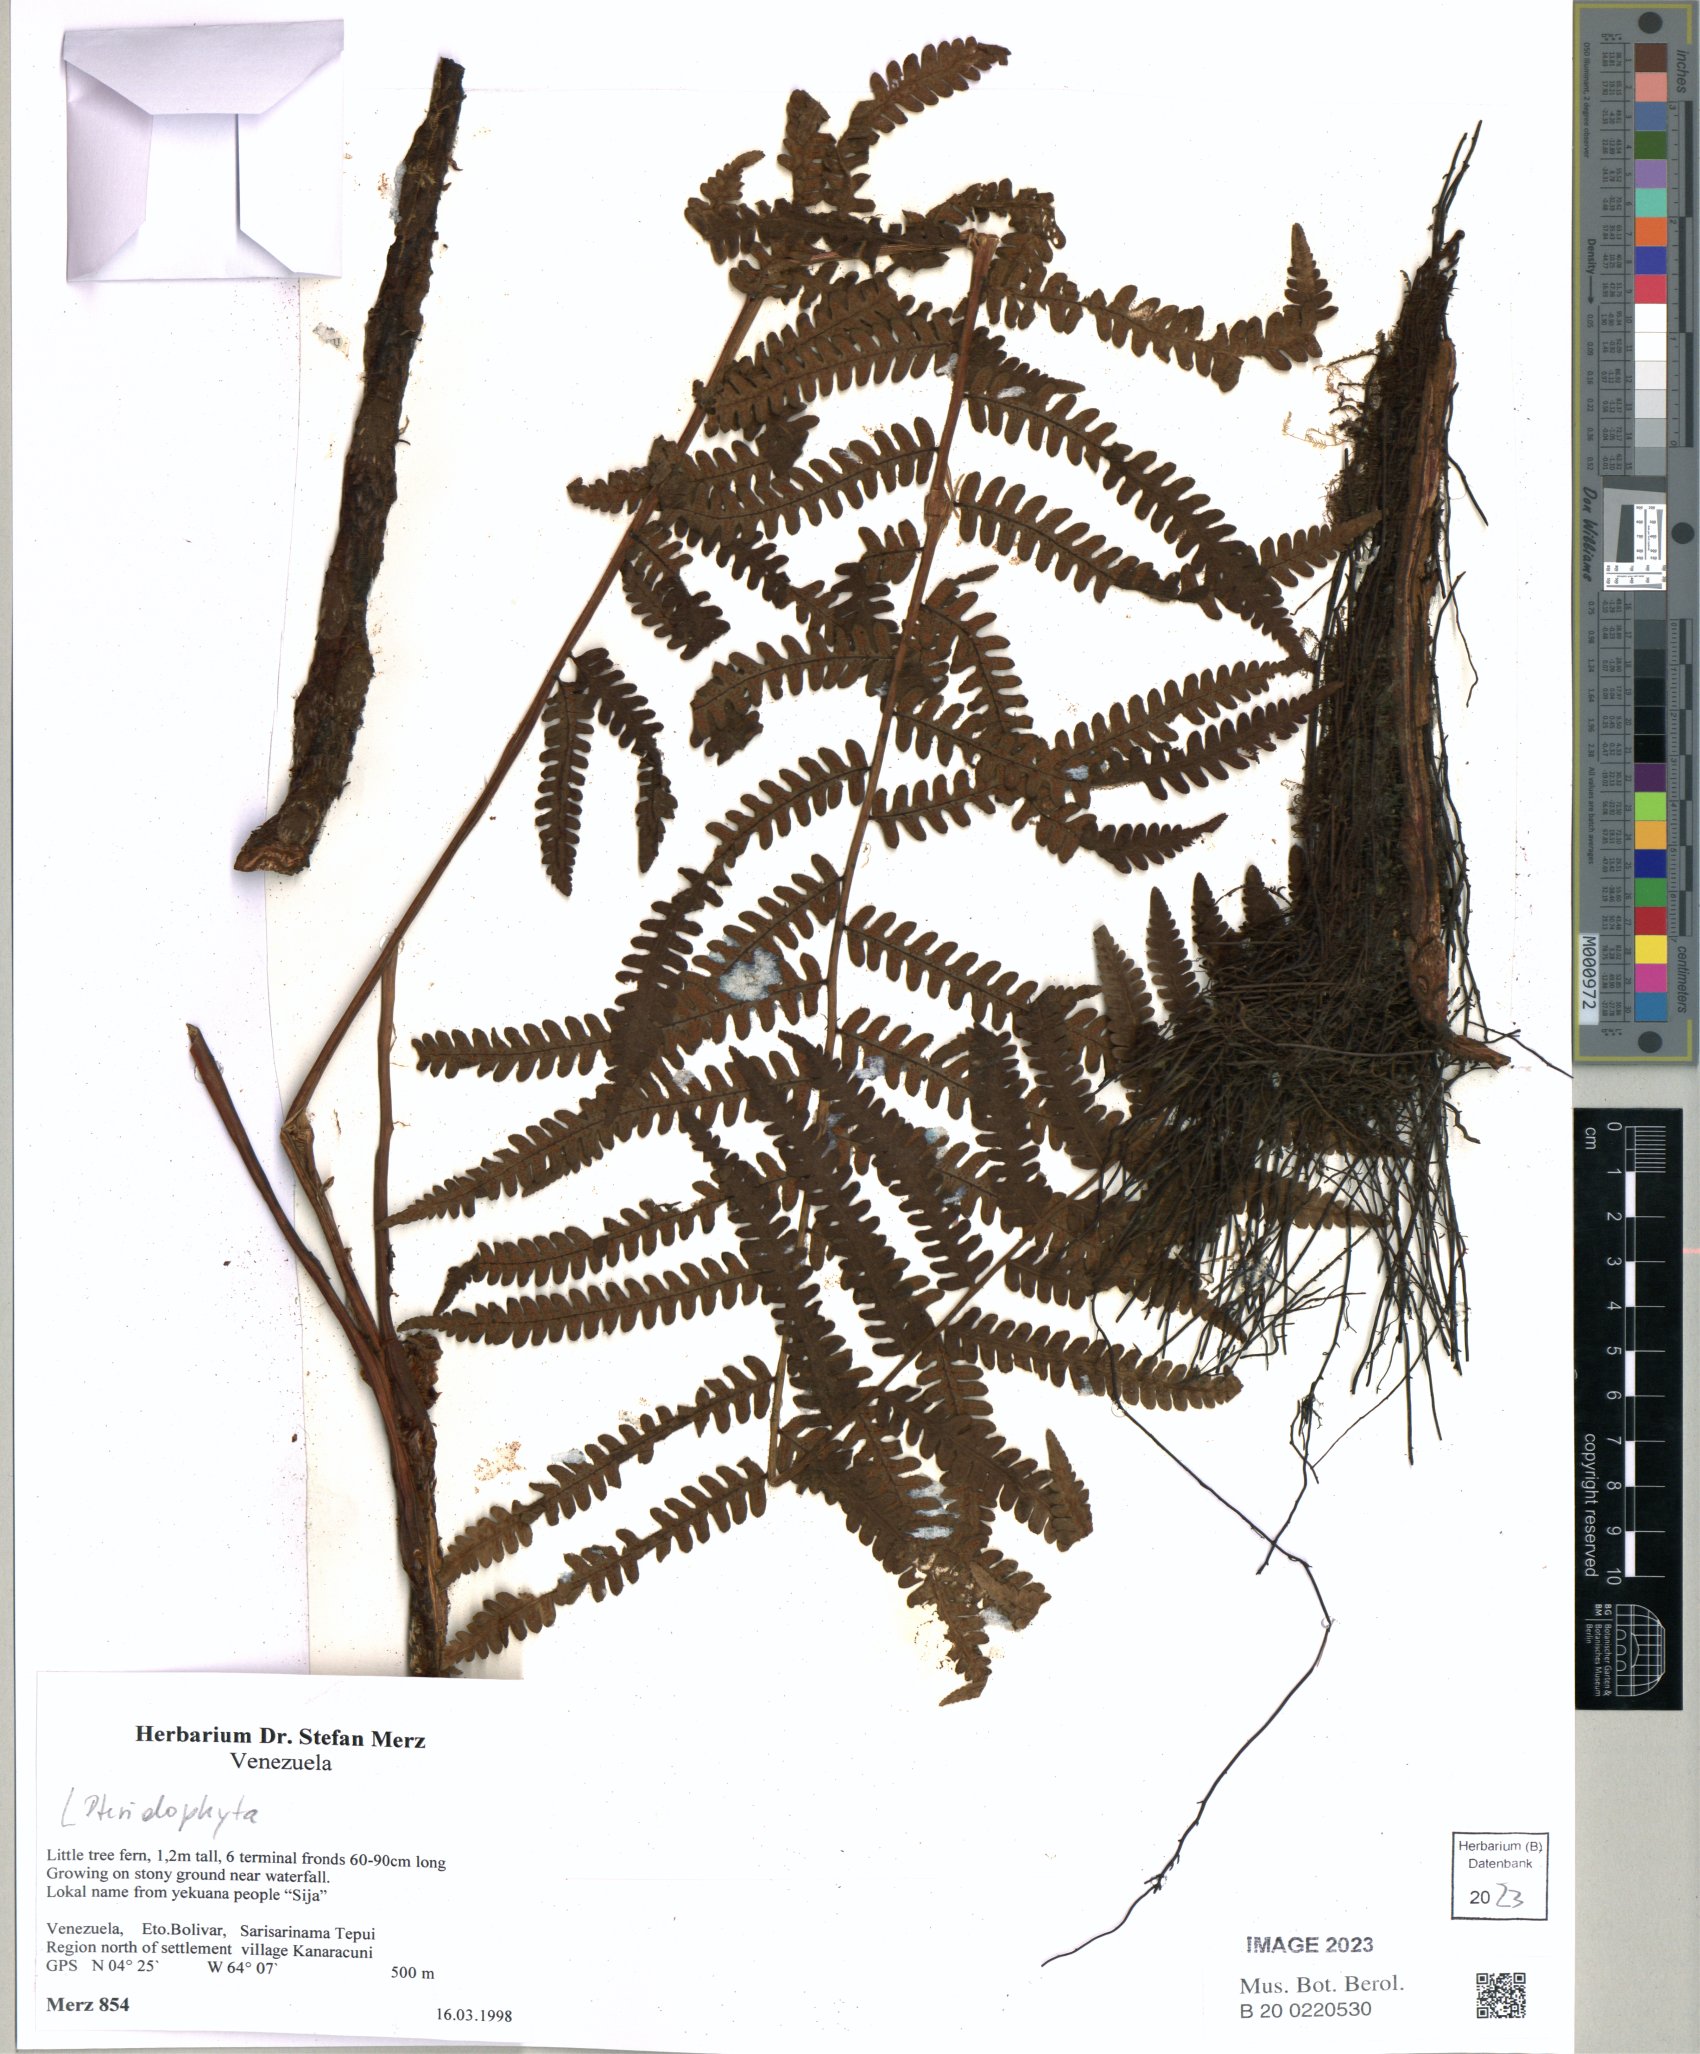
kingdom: Plantae
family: Pteridophyta
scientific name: Pteridophyta
